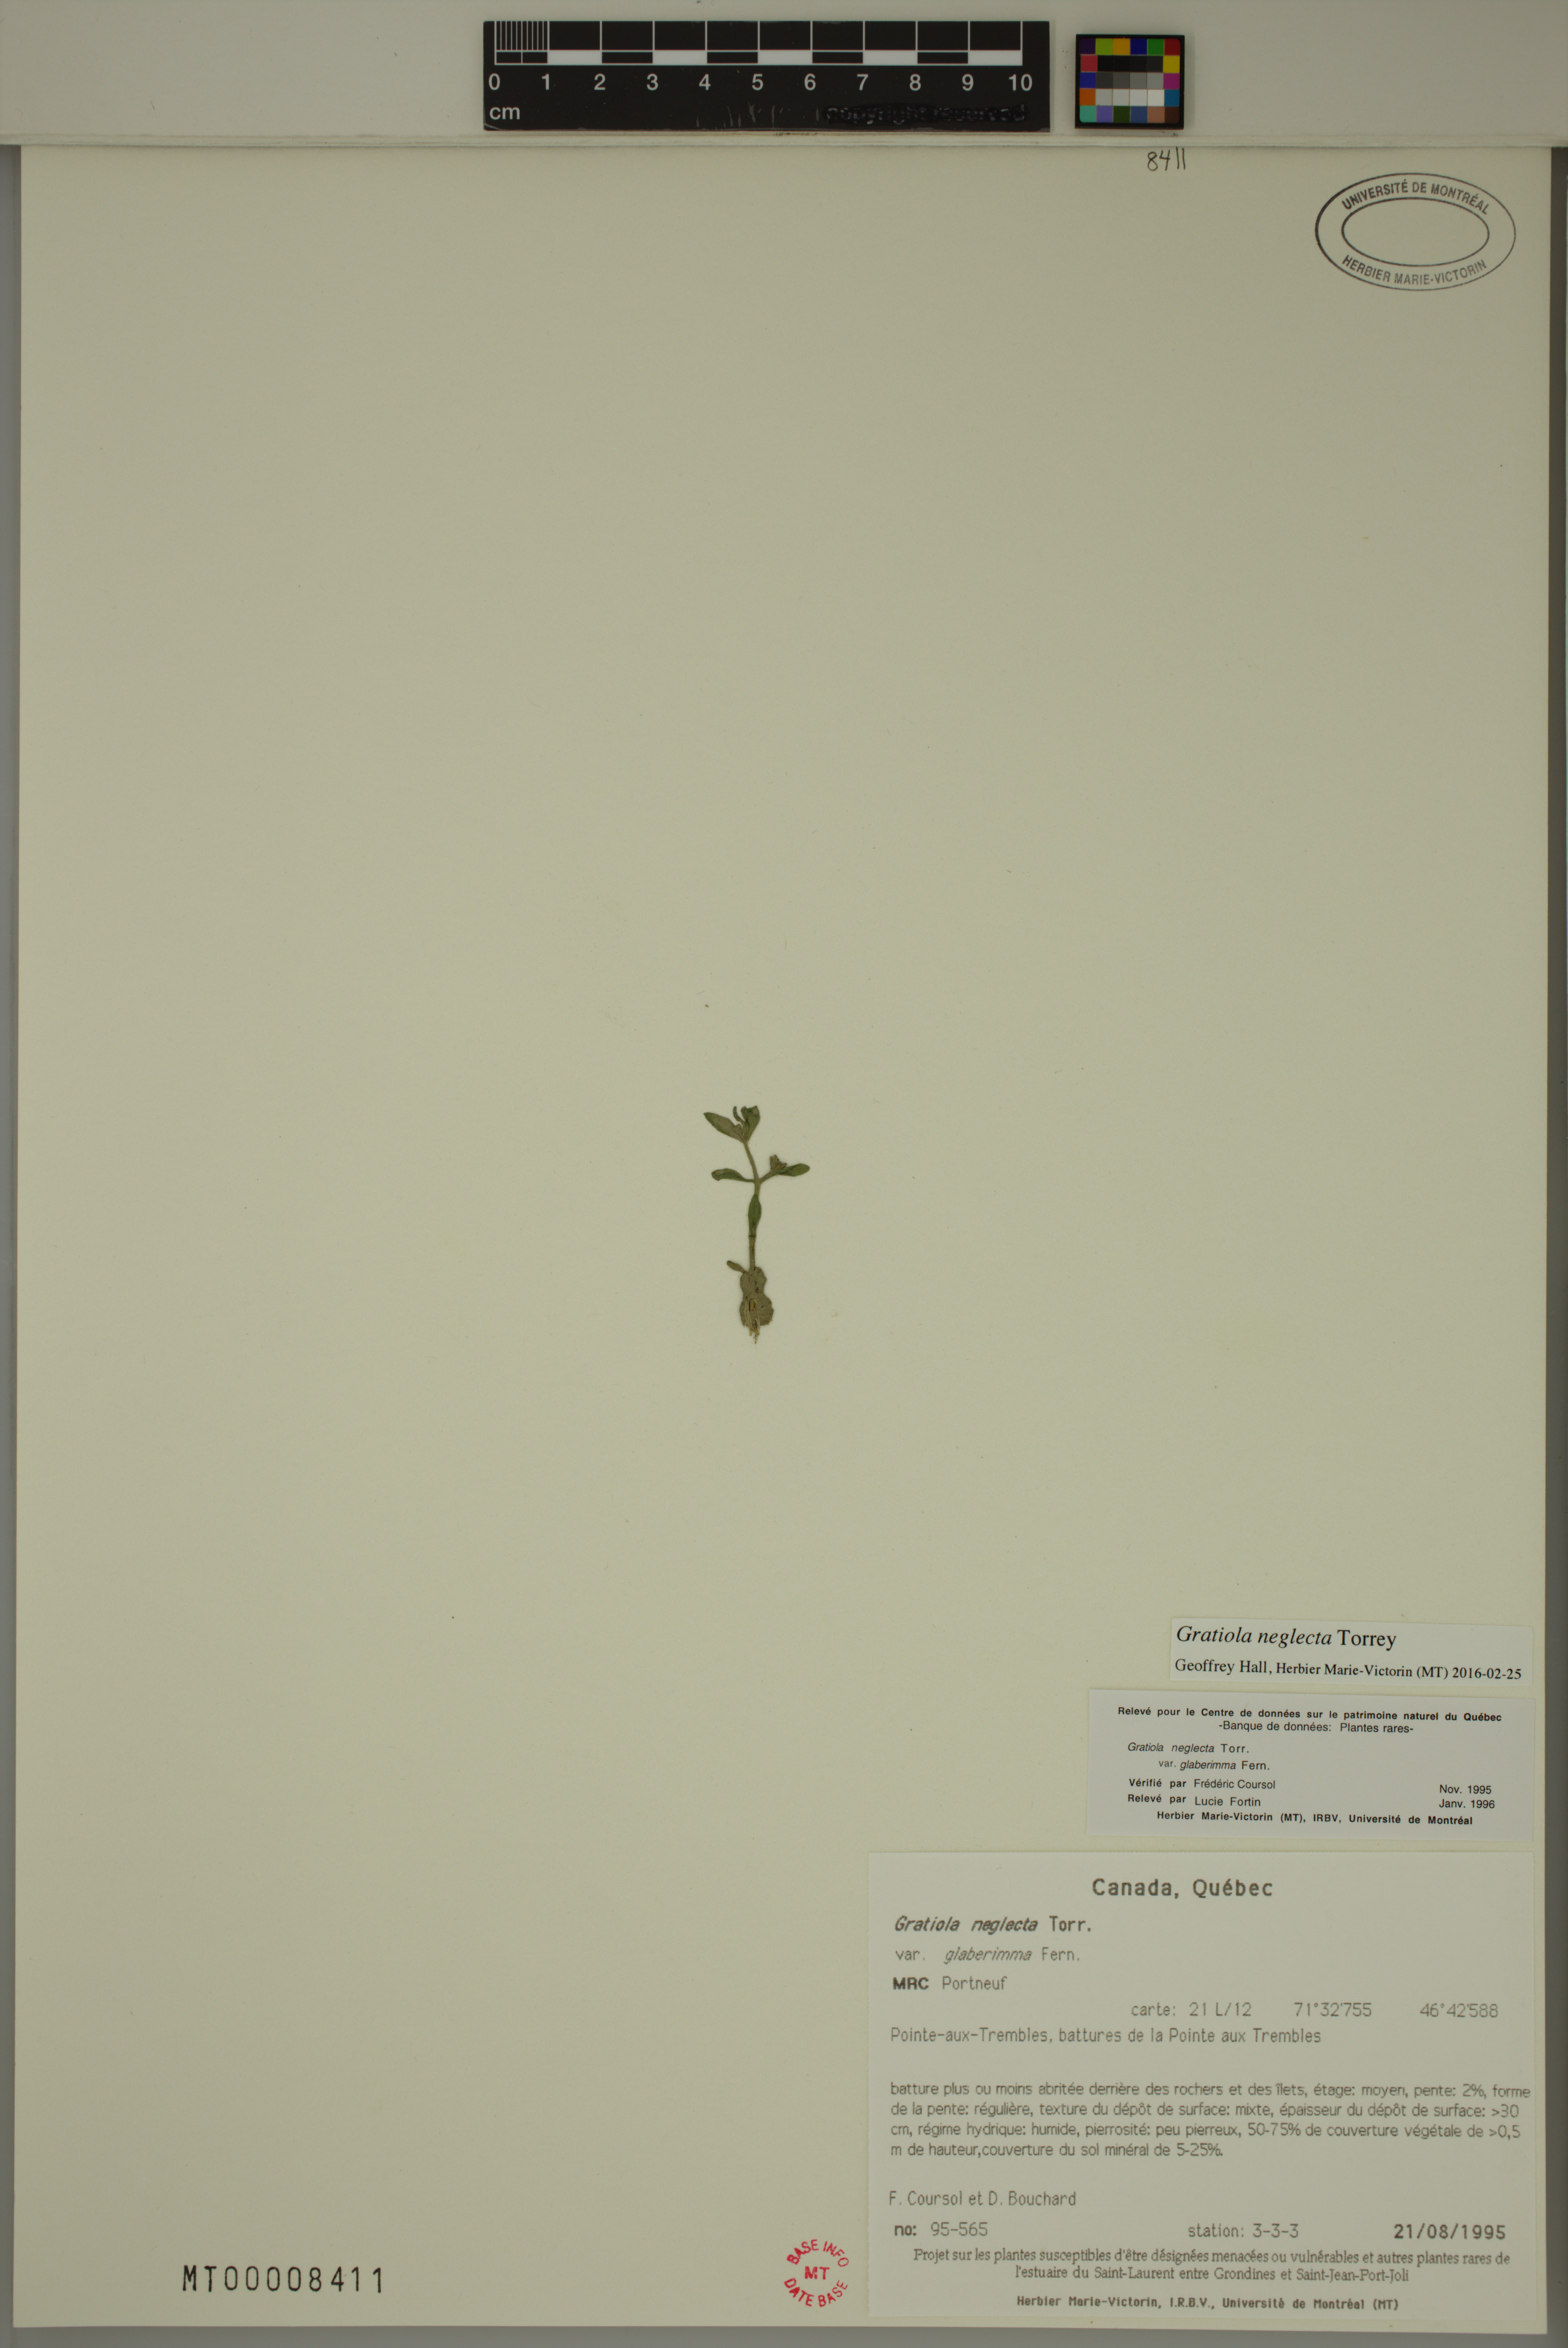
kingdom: Plantae
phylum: Tracheophyta
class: Magnoliopsida
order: Lamiales
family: Plantaginaceae
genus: Gratiola
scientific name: Gratiola neglecta
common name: American hedge-hyssop
